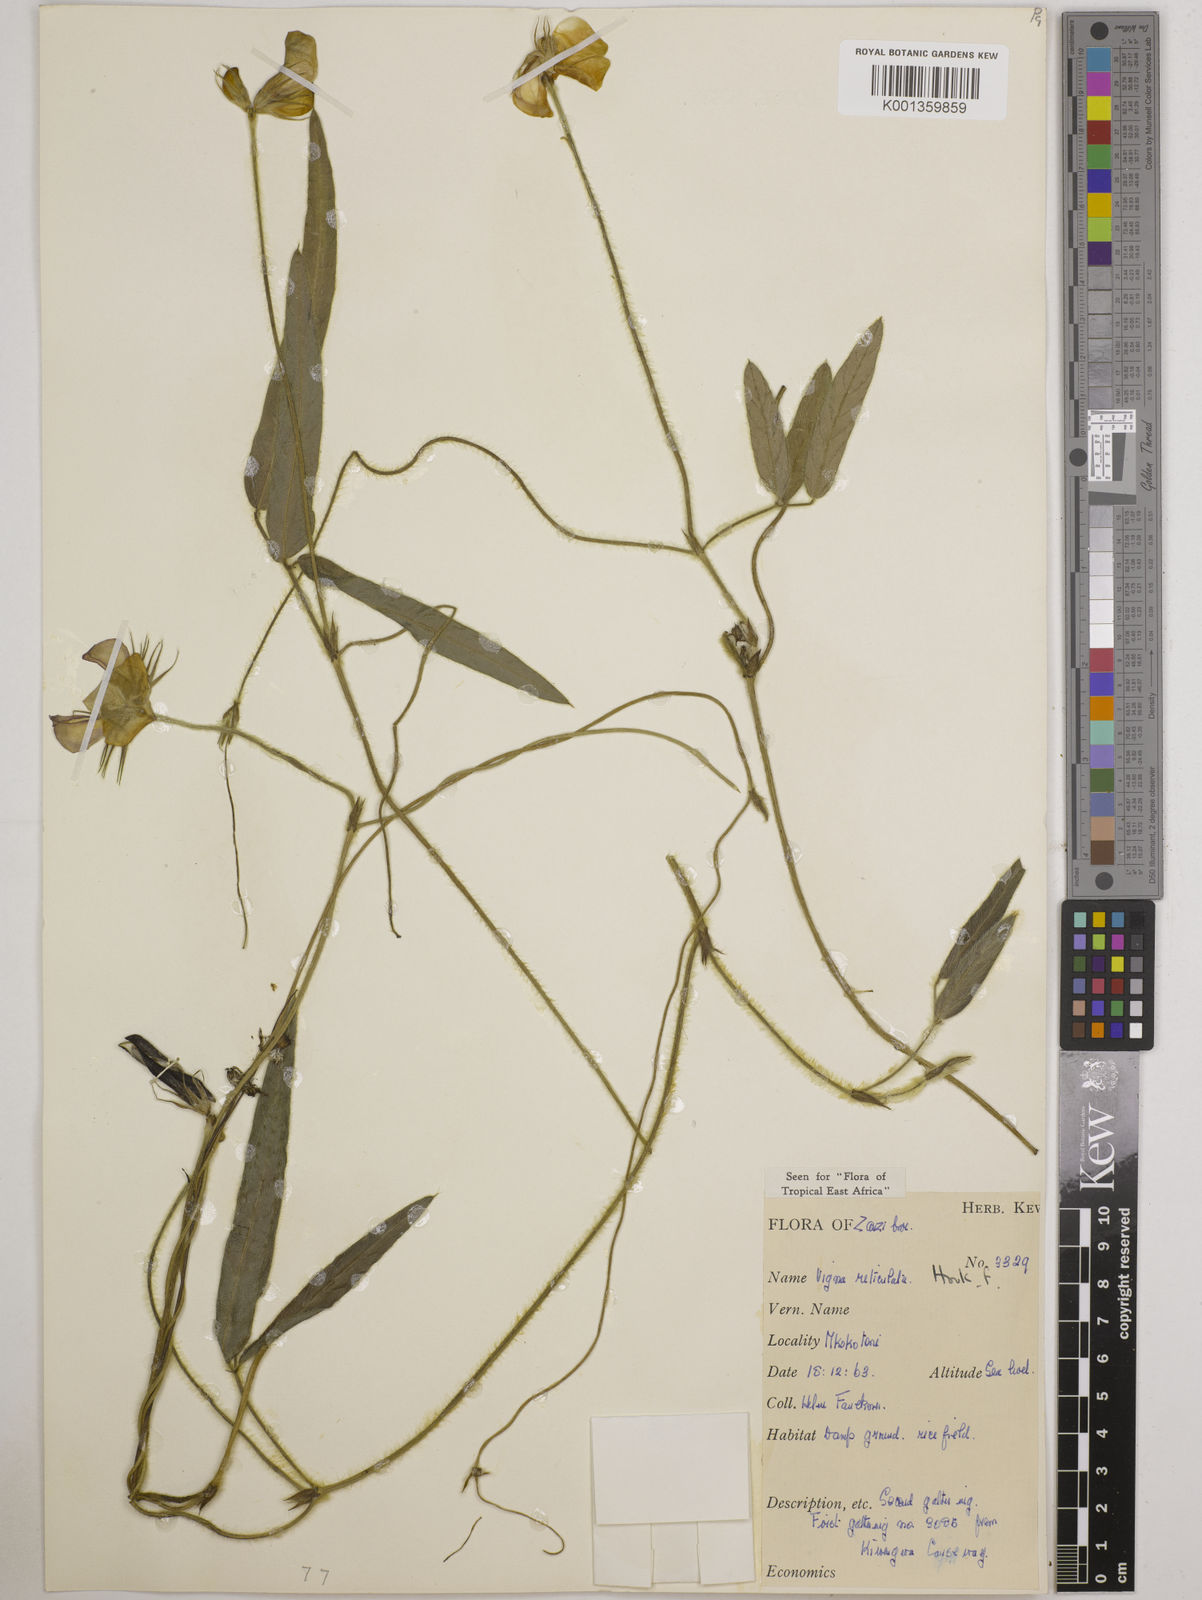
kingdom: Plantae
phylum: Tracheophyta
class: Magnoliopsida
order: Fabales
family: Fabaceae
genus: Vigna
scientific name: Vigna reticulata
